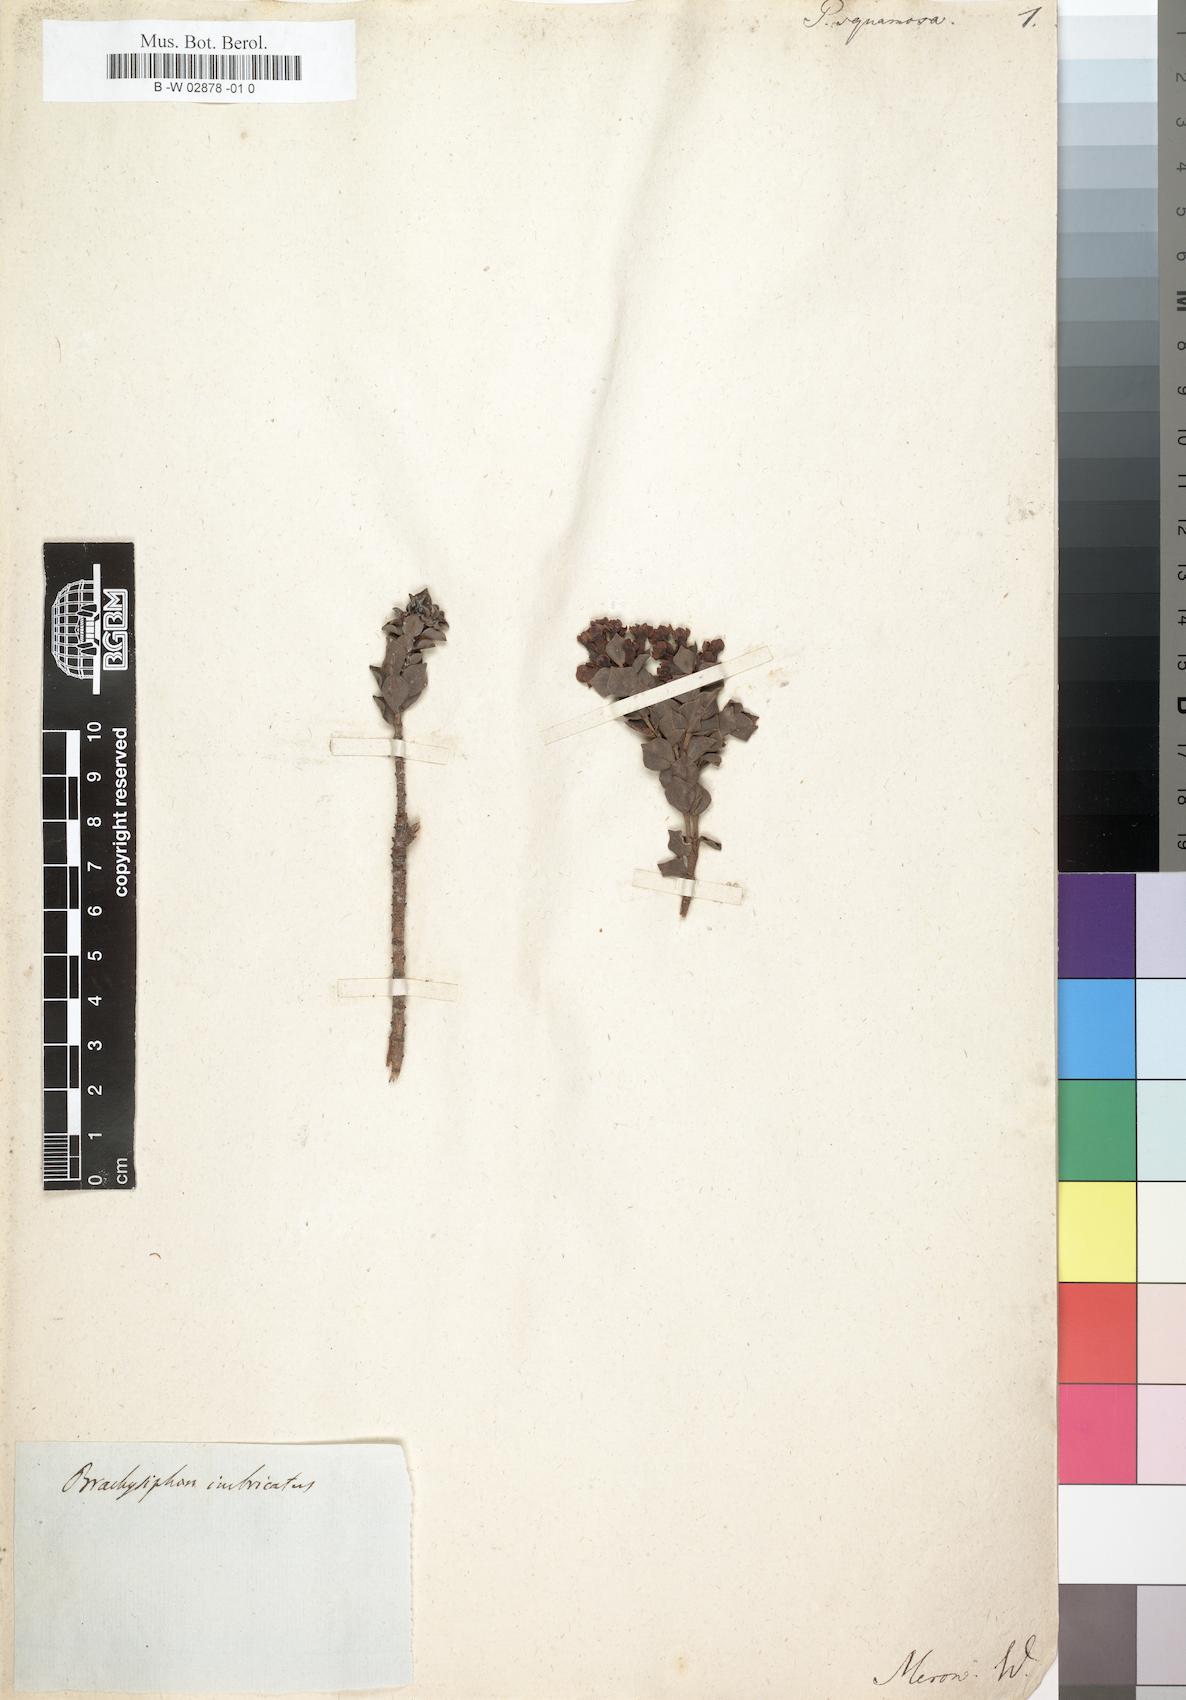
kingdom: Plantae
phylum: Tracheophyta
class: Magnoliopsida
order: Myrtales
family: Penaeaceae
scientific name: Penaeaceae
